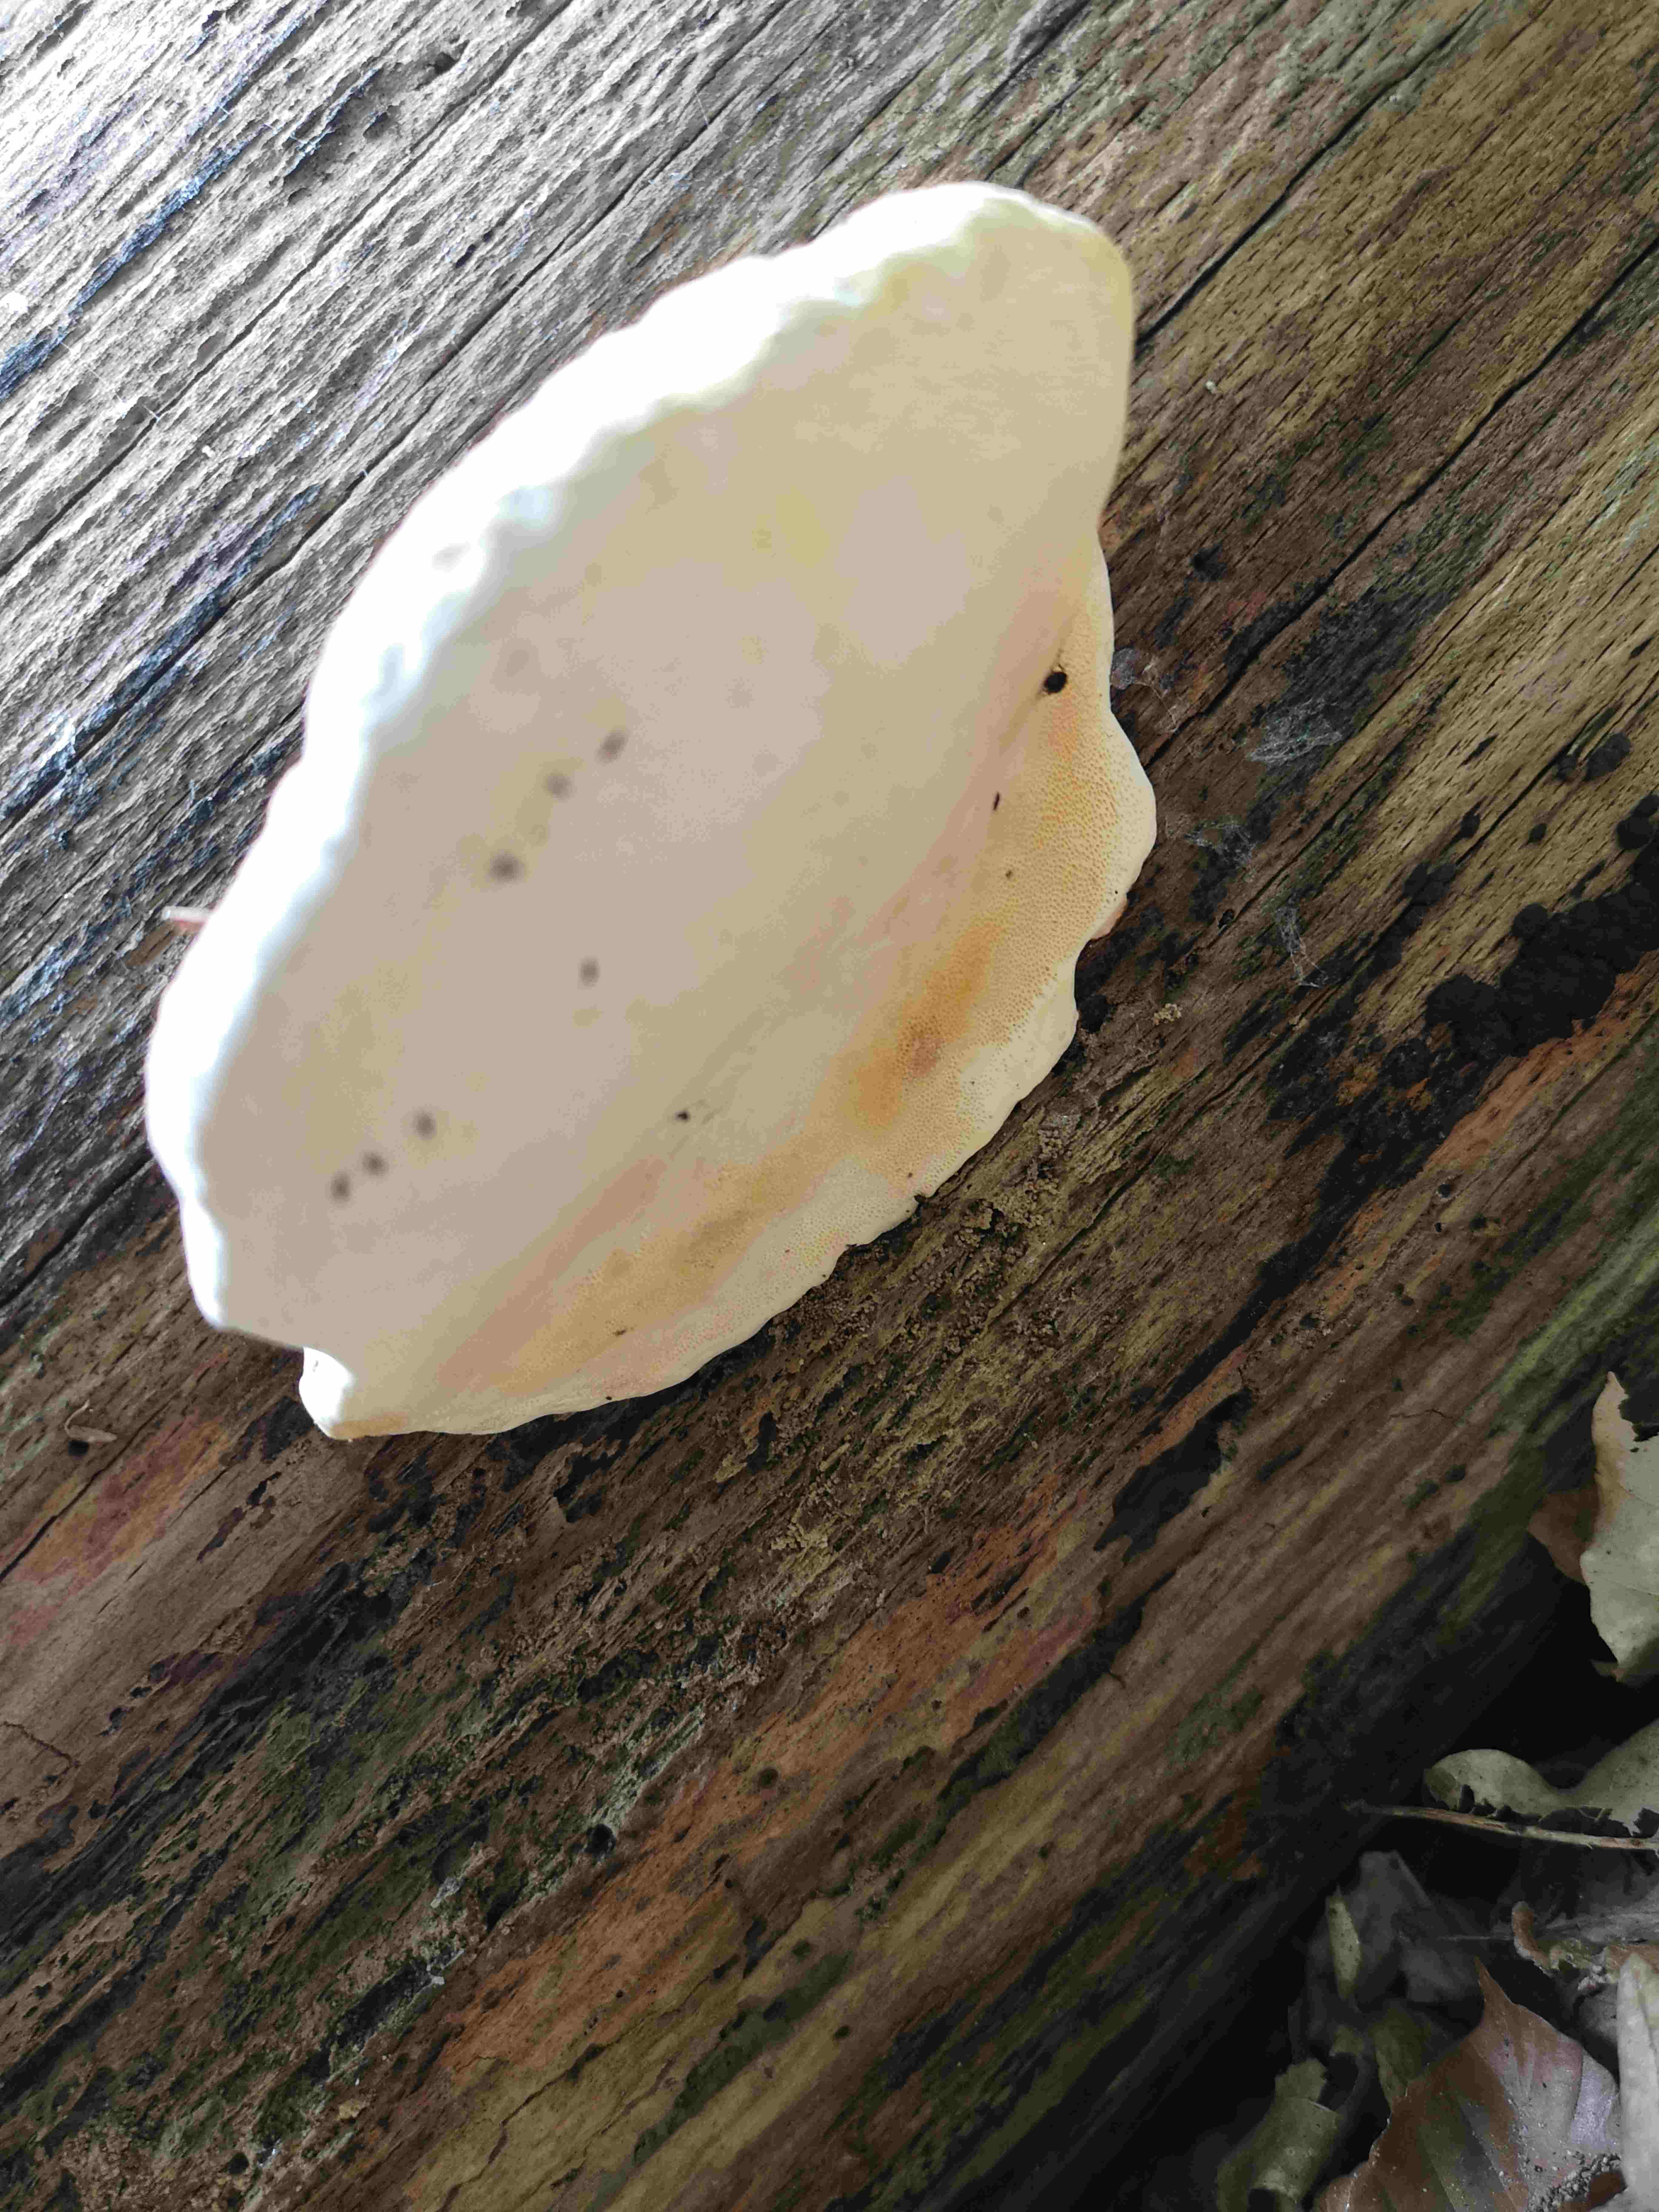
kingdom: Fungi
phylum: Basidiomycota
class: Agaricomycetes
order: Polyporales
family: Fomitopsidaceae
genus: Fomitopsis
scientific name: Fomitopsis pinicola
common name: randbæltet hovporesvamp
